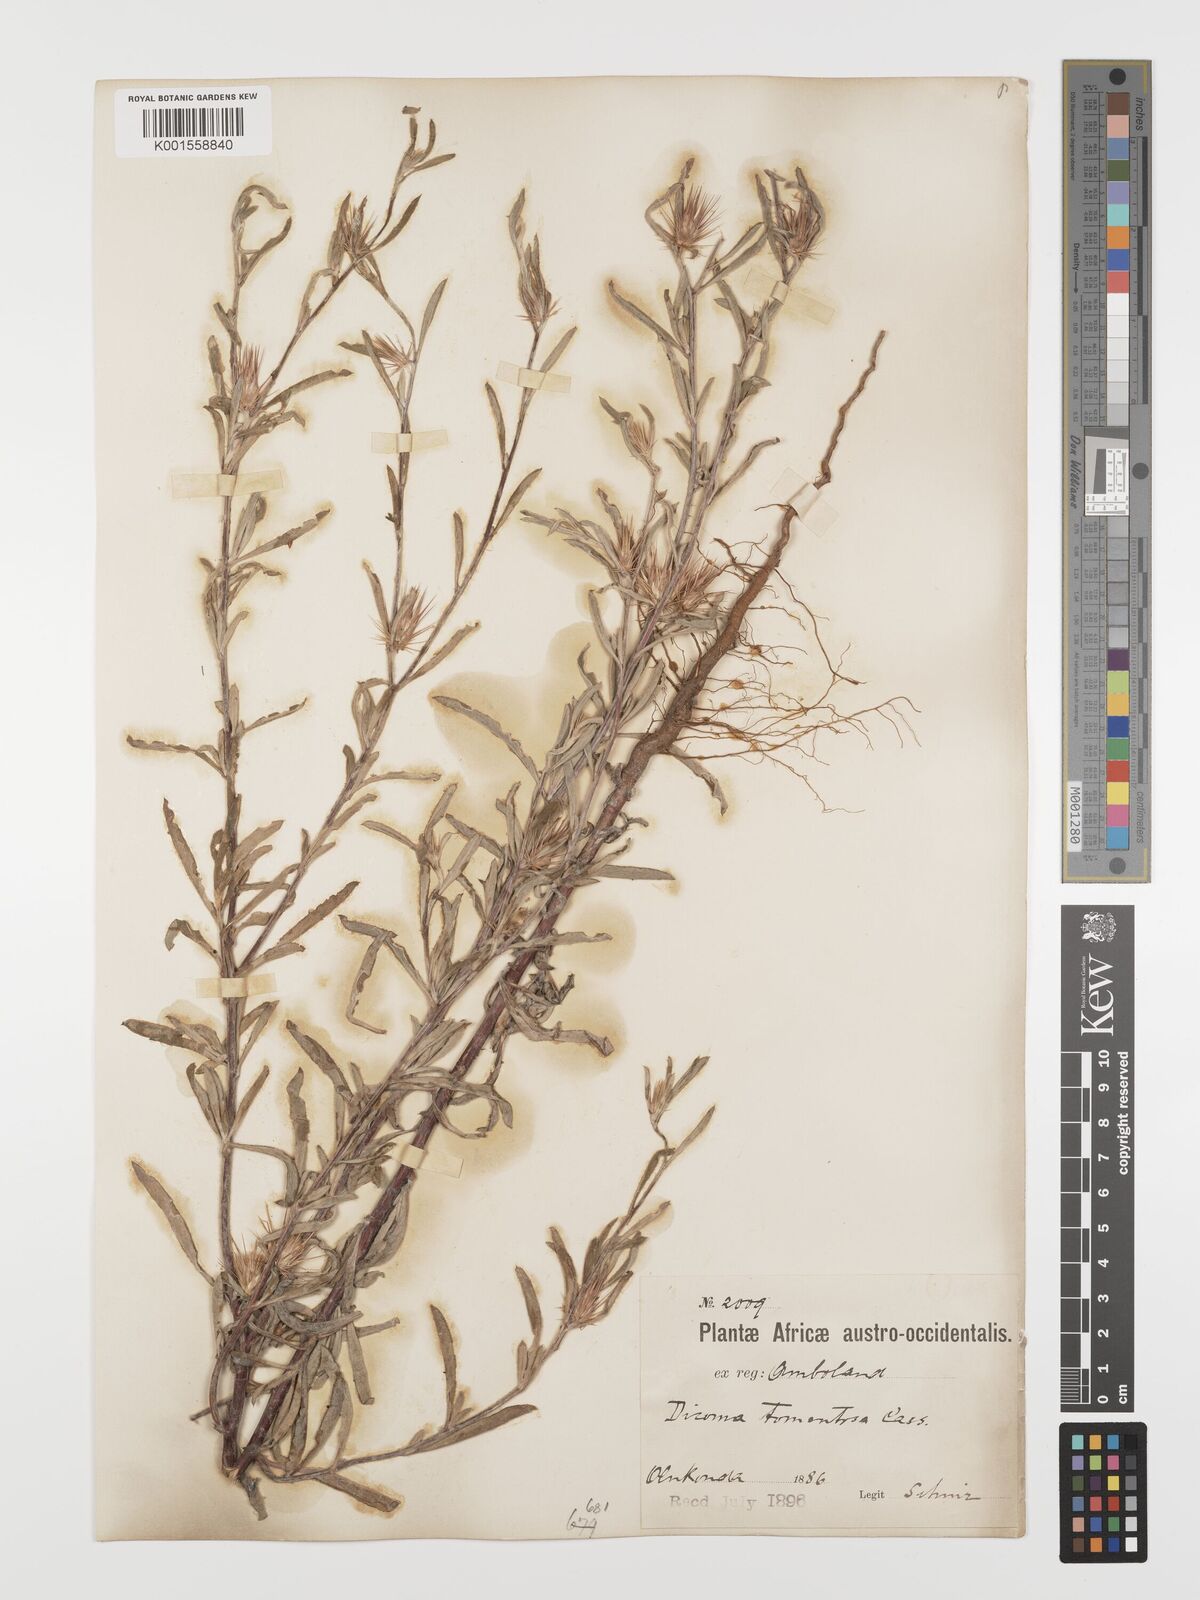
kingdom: Plantae
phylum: Tracheophyta
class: Magnoliopsida
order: Asterales
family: Asteraceae
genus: Dicoma
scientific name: Dicoma tomentosa
